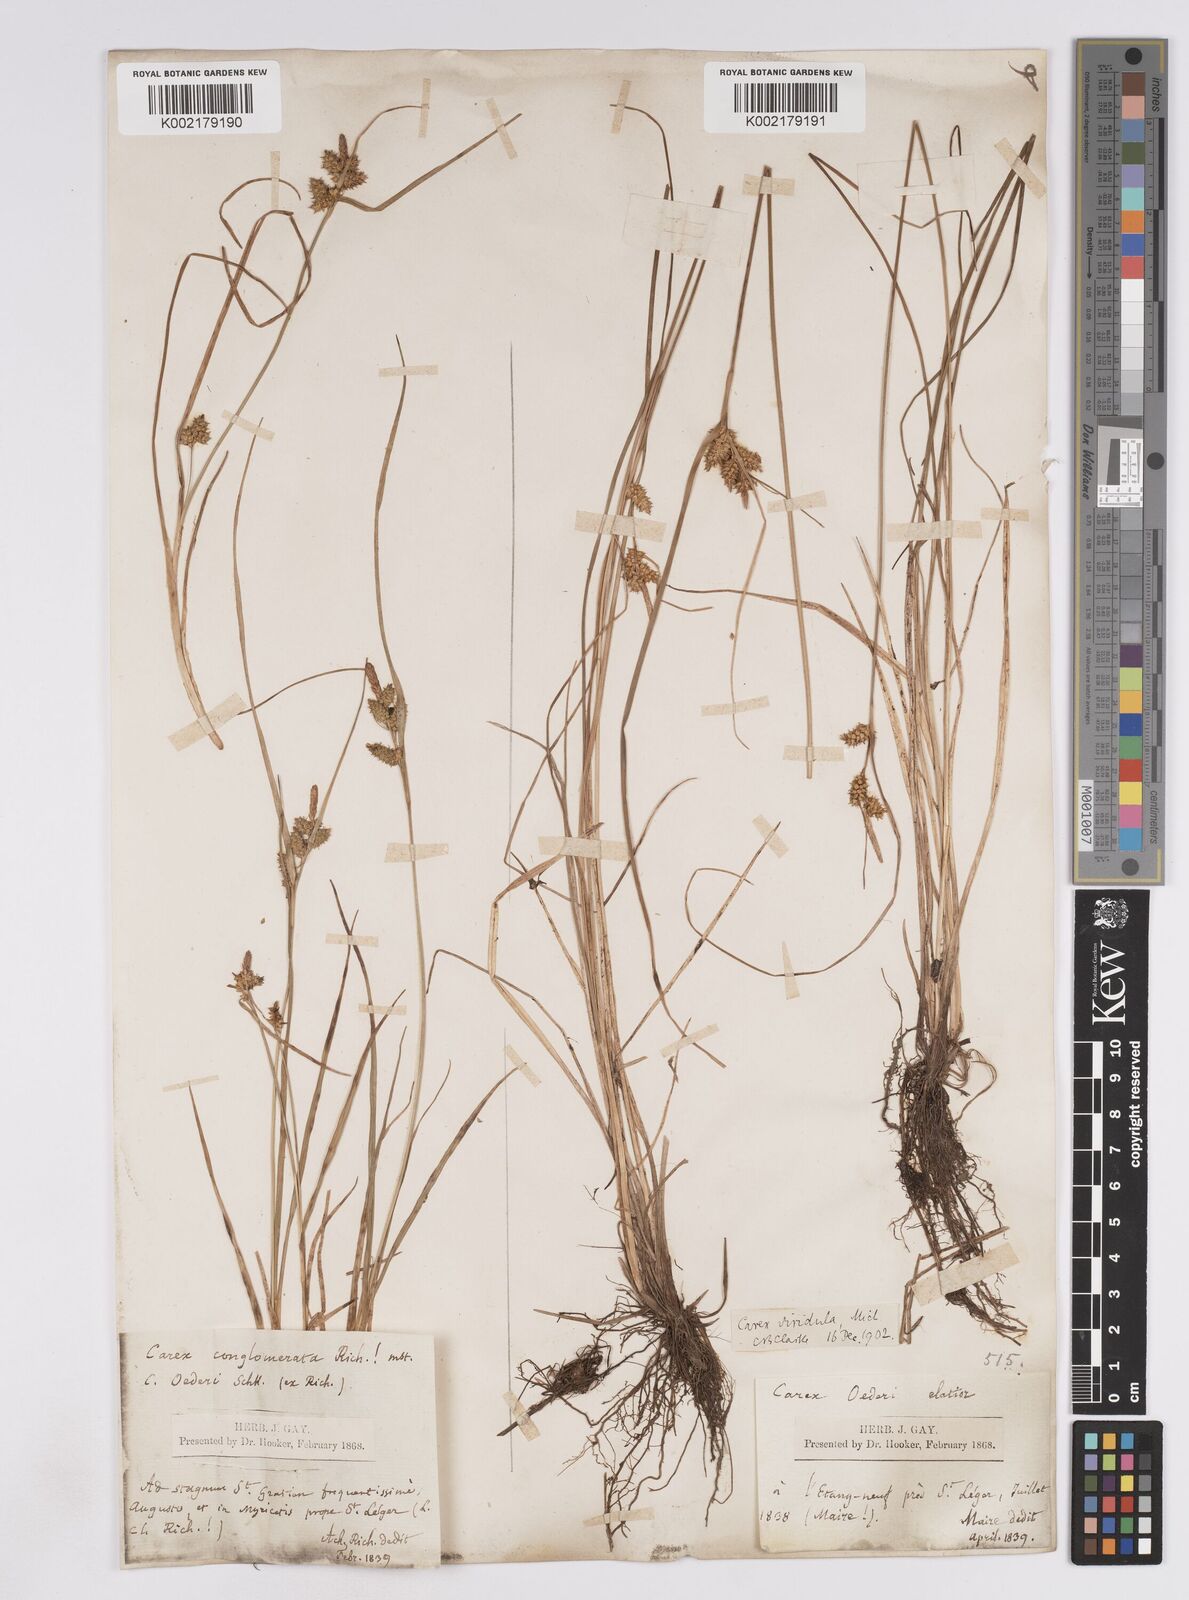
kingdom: Plantae
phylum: Tracheophyta
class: Liliopsida
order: Poales
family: Cyperaceae
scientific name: Cyperaceae
